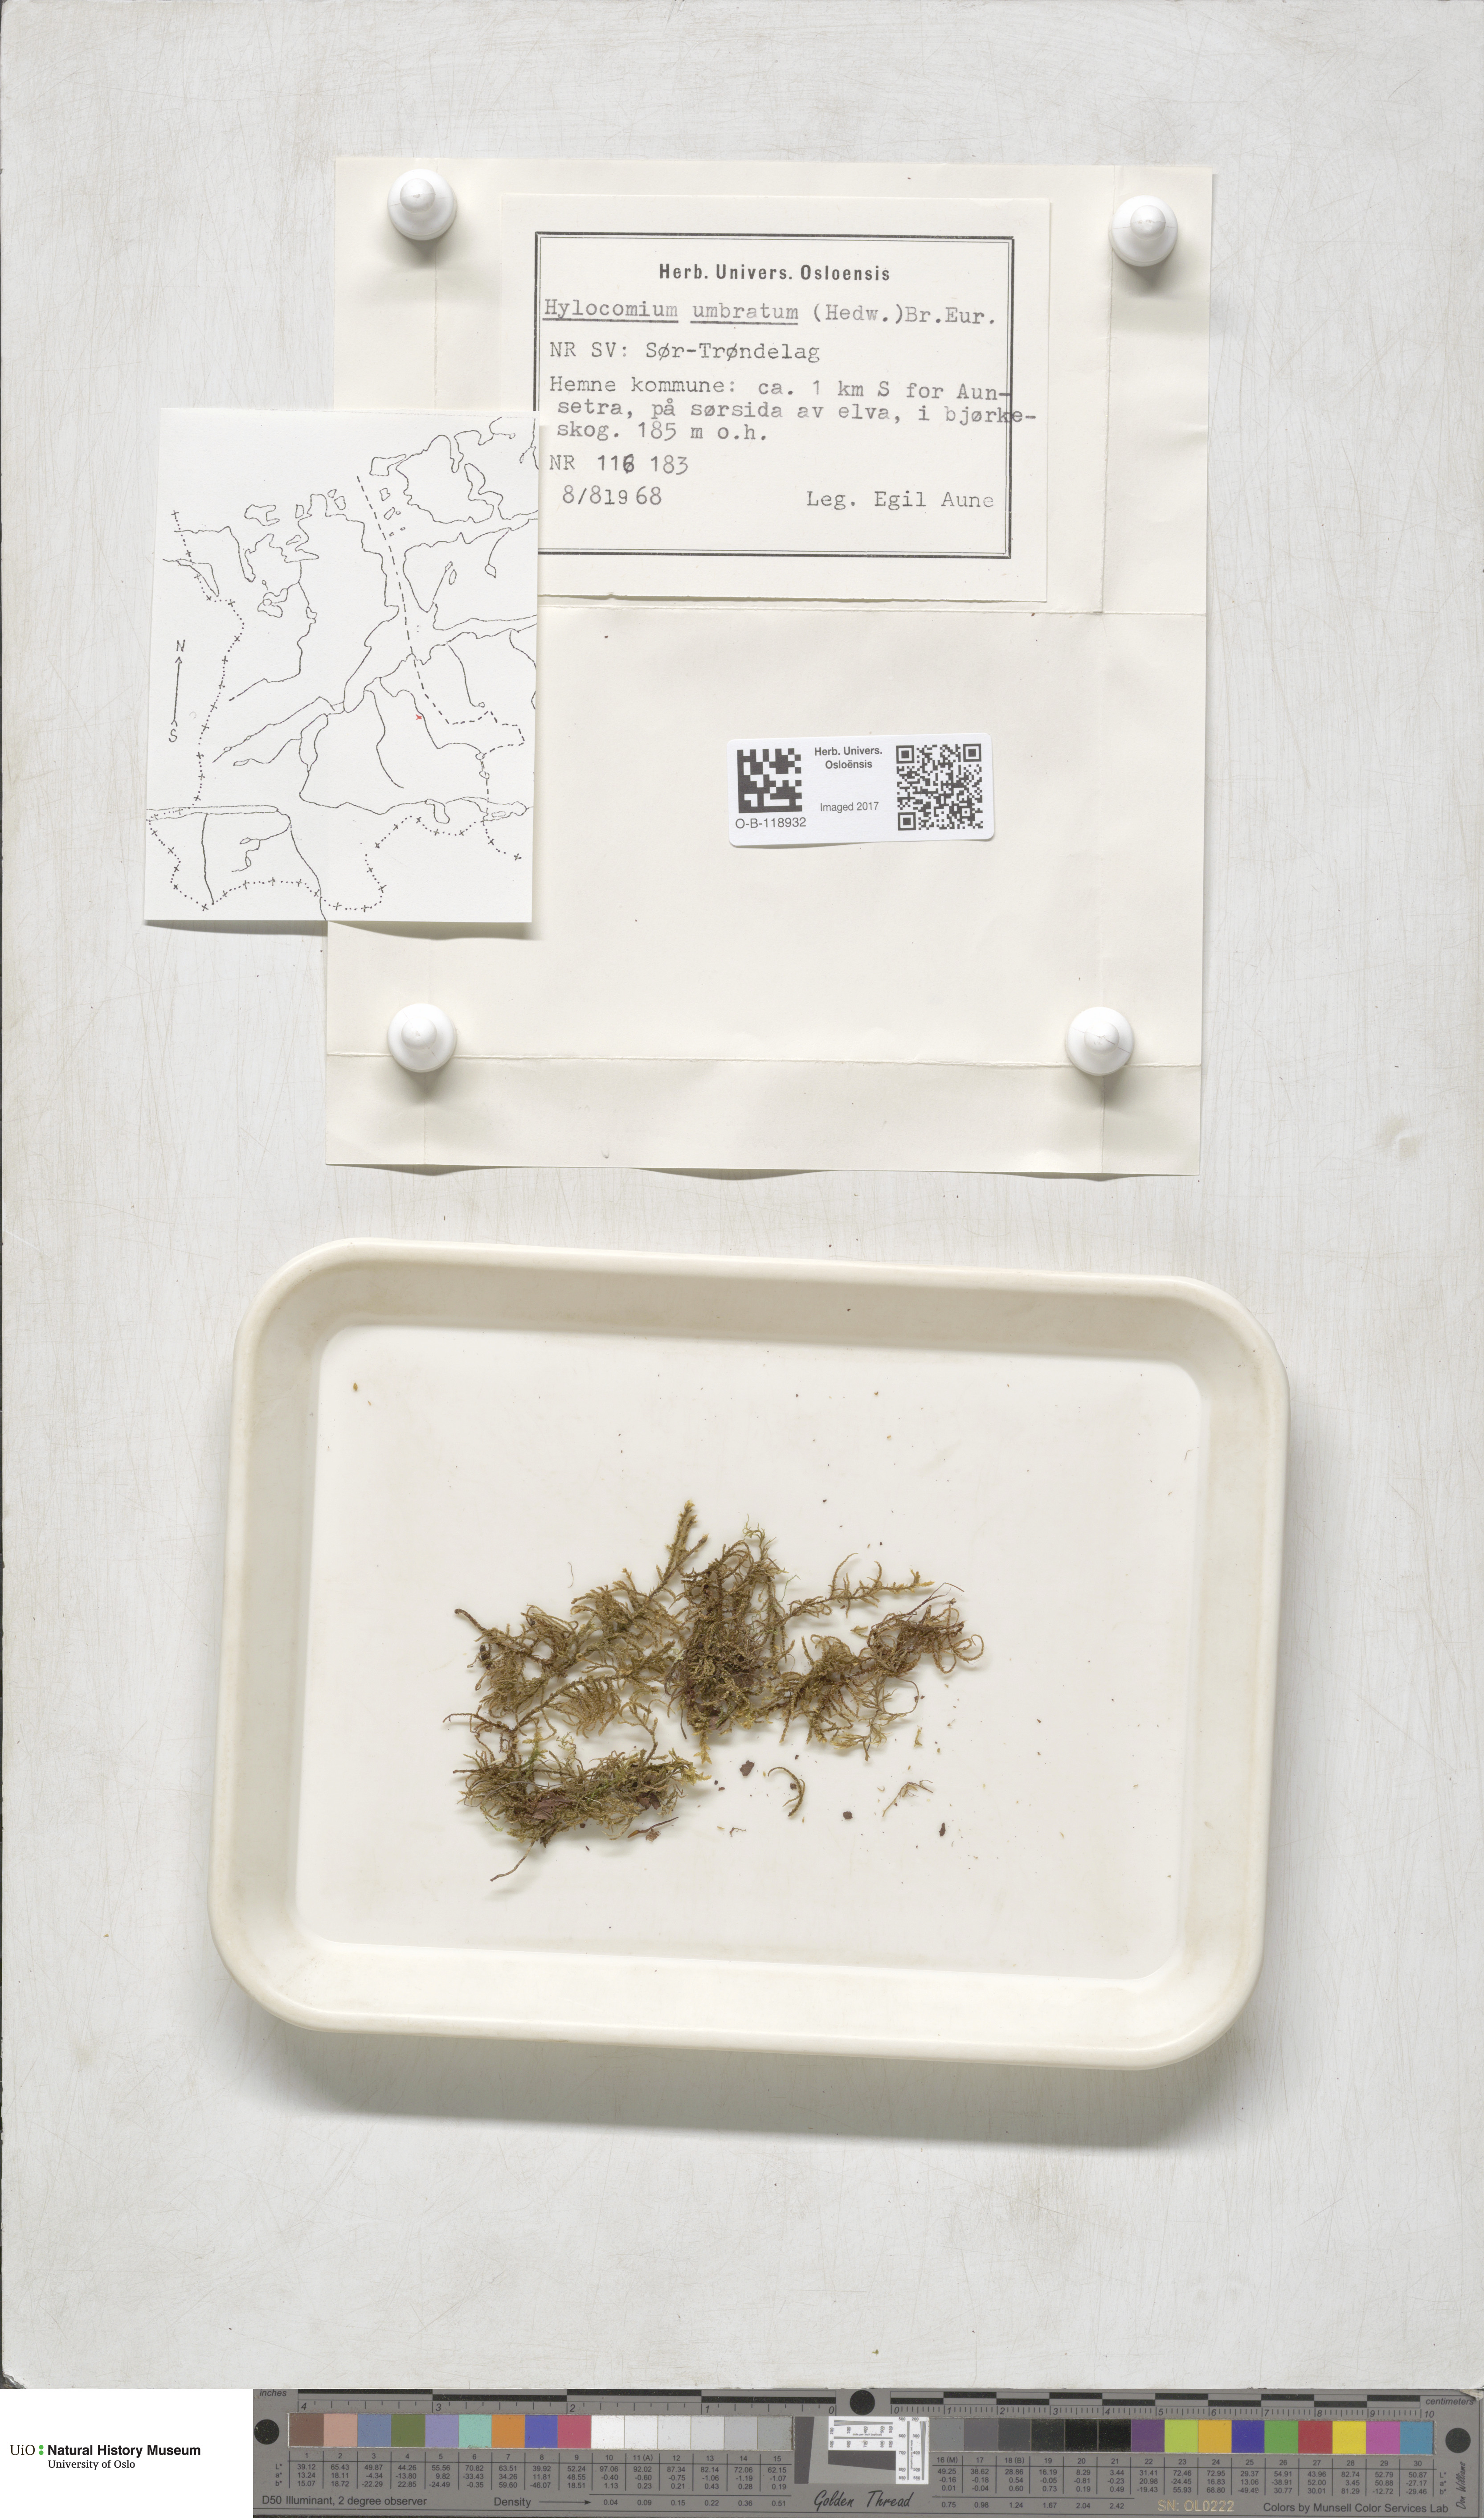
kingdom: Plantae
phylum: Bryophyta
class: Bryopsida
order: Hypnales
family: Hylocomiaceae
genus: Hylocomiastrum
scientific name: Hylocomiastrum umbratum
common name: Shaded woods moss
